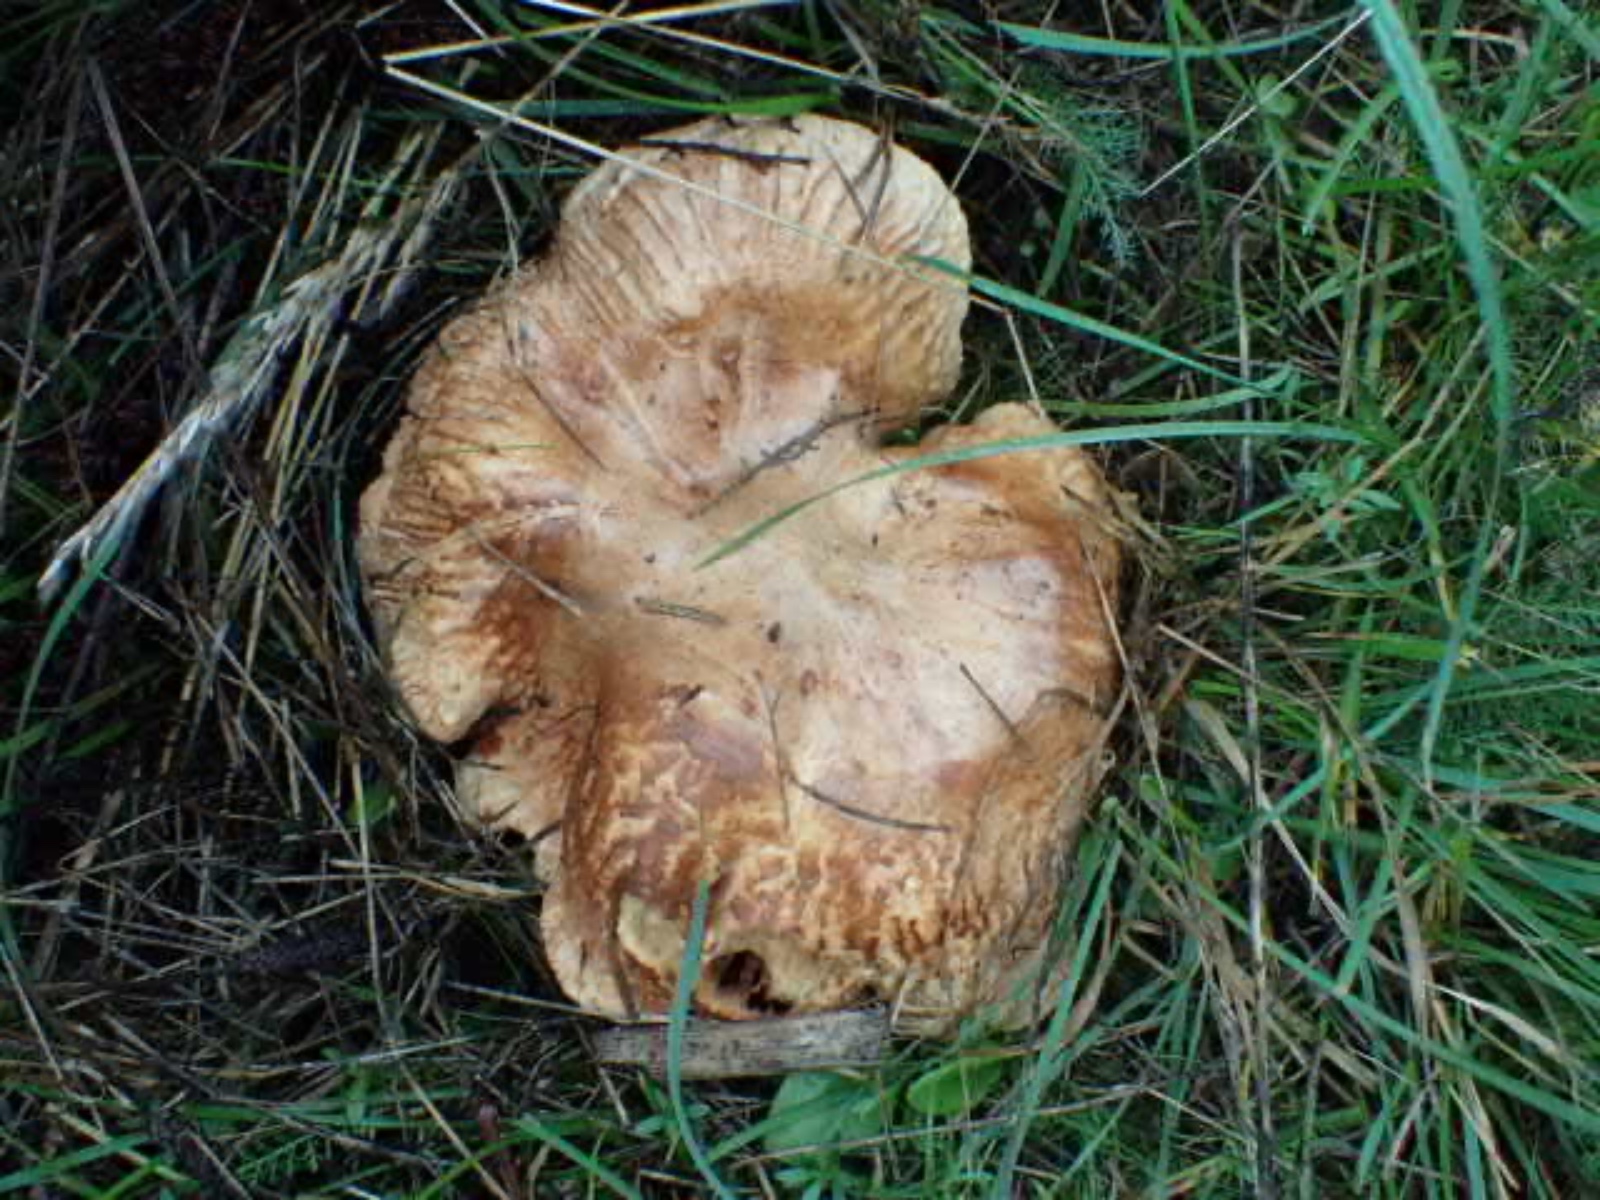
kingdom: Fungi
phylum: Basidiomycota
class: Agaricomycetes
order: Boletales
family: Paxillaceae
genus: Paxillus
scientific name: Paxillus
